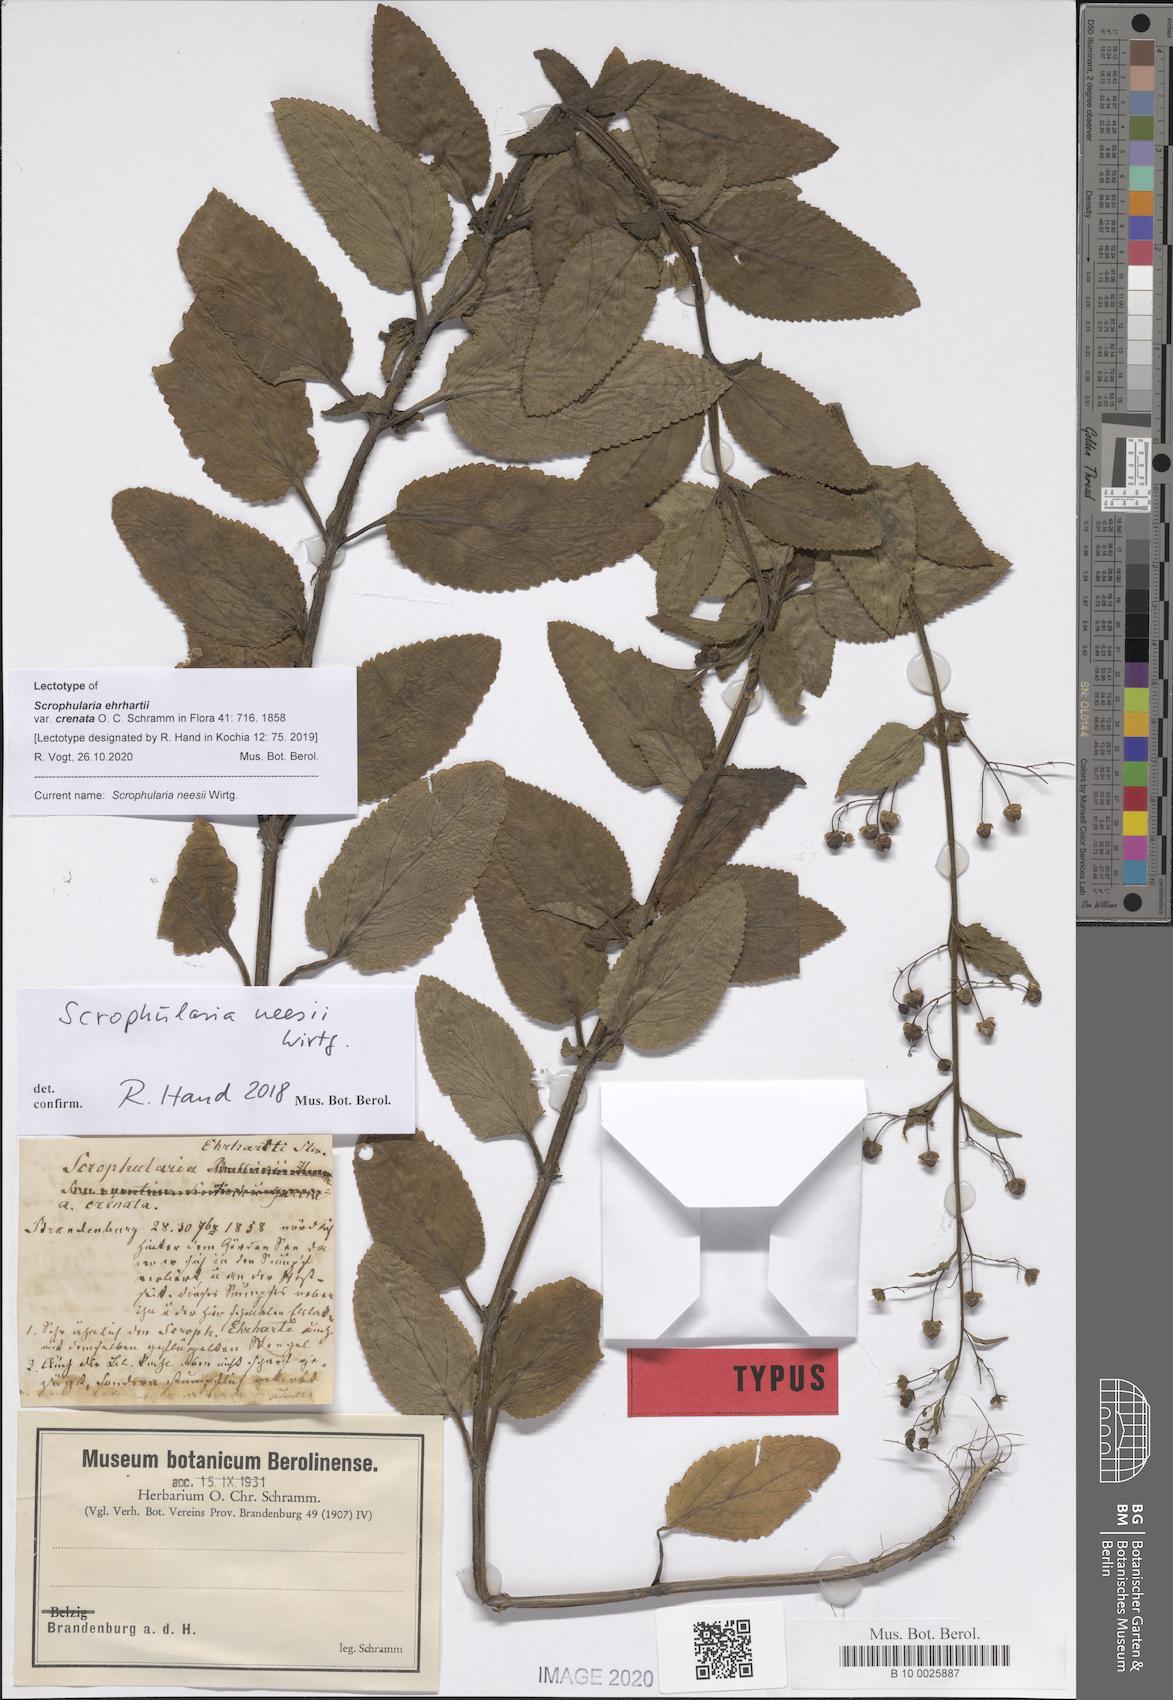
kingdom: Plantae
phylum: Tracheophyta
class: Magnoliopsida
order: Lamiales
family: Scrophulariaceae
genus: Scrophularia
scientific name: Scrophularia neesii
